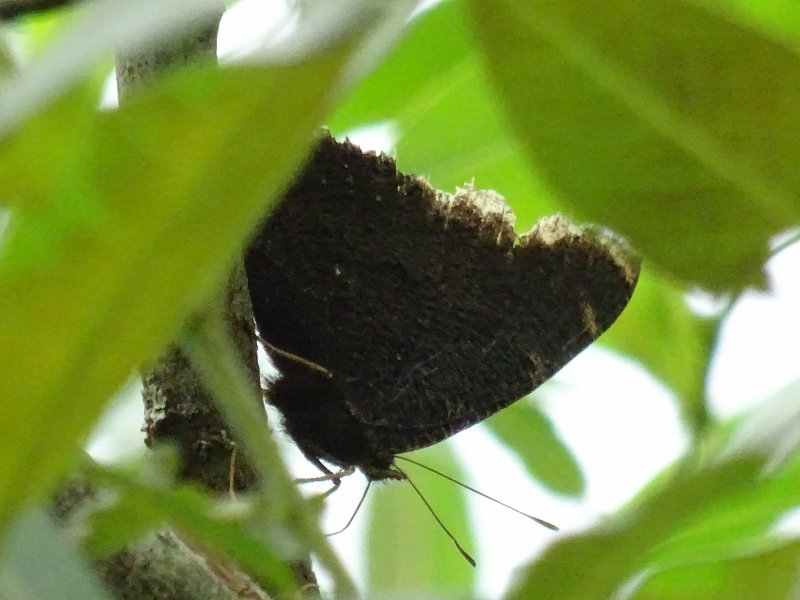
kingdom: Animalia
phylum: Arthropoda
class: Insecta
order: Lepidoptera
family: Nymphalidae
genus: Nymphalis
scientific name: Nymphalis antiopa
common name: Mourning Cloak
